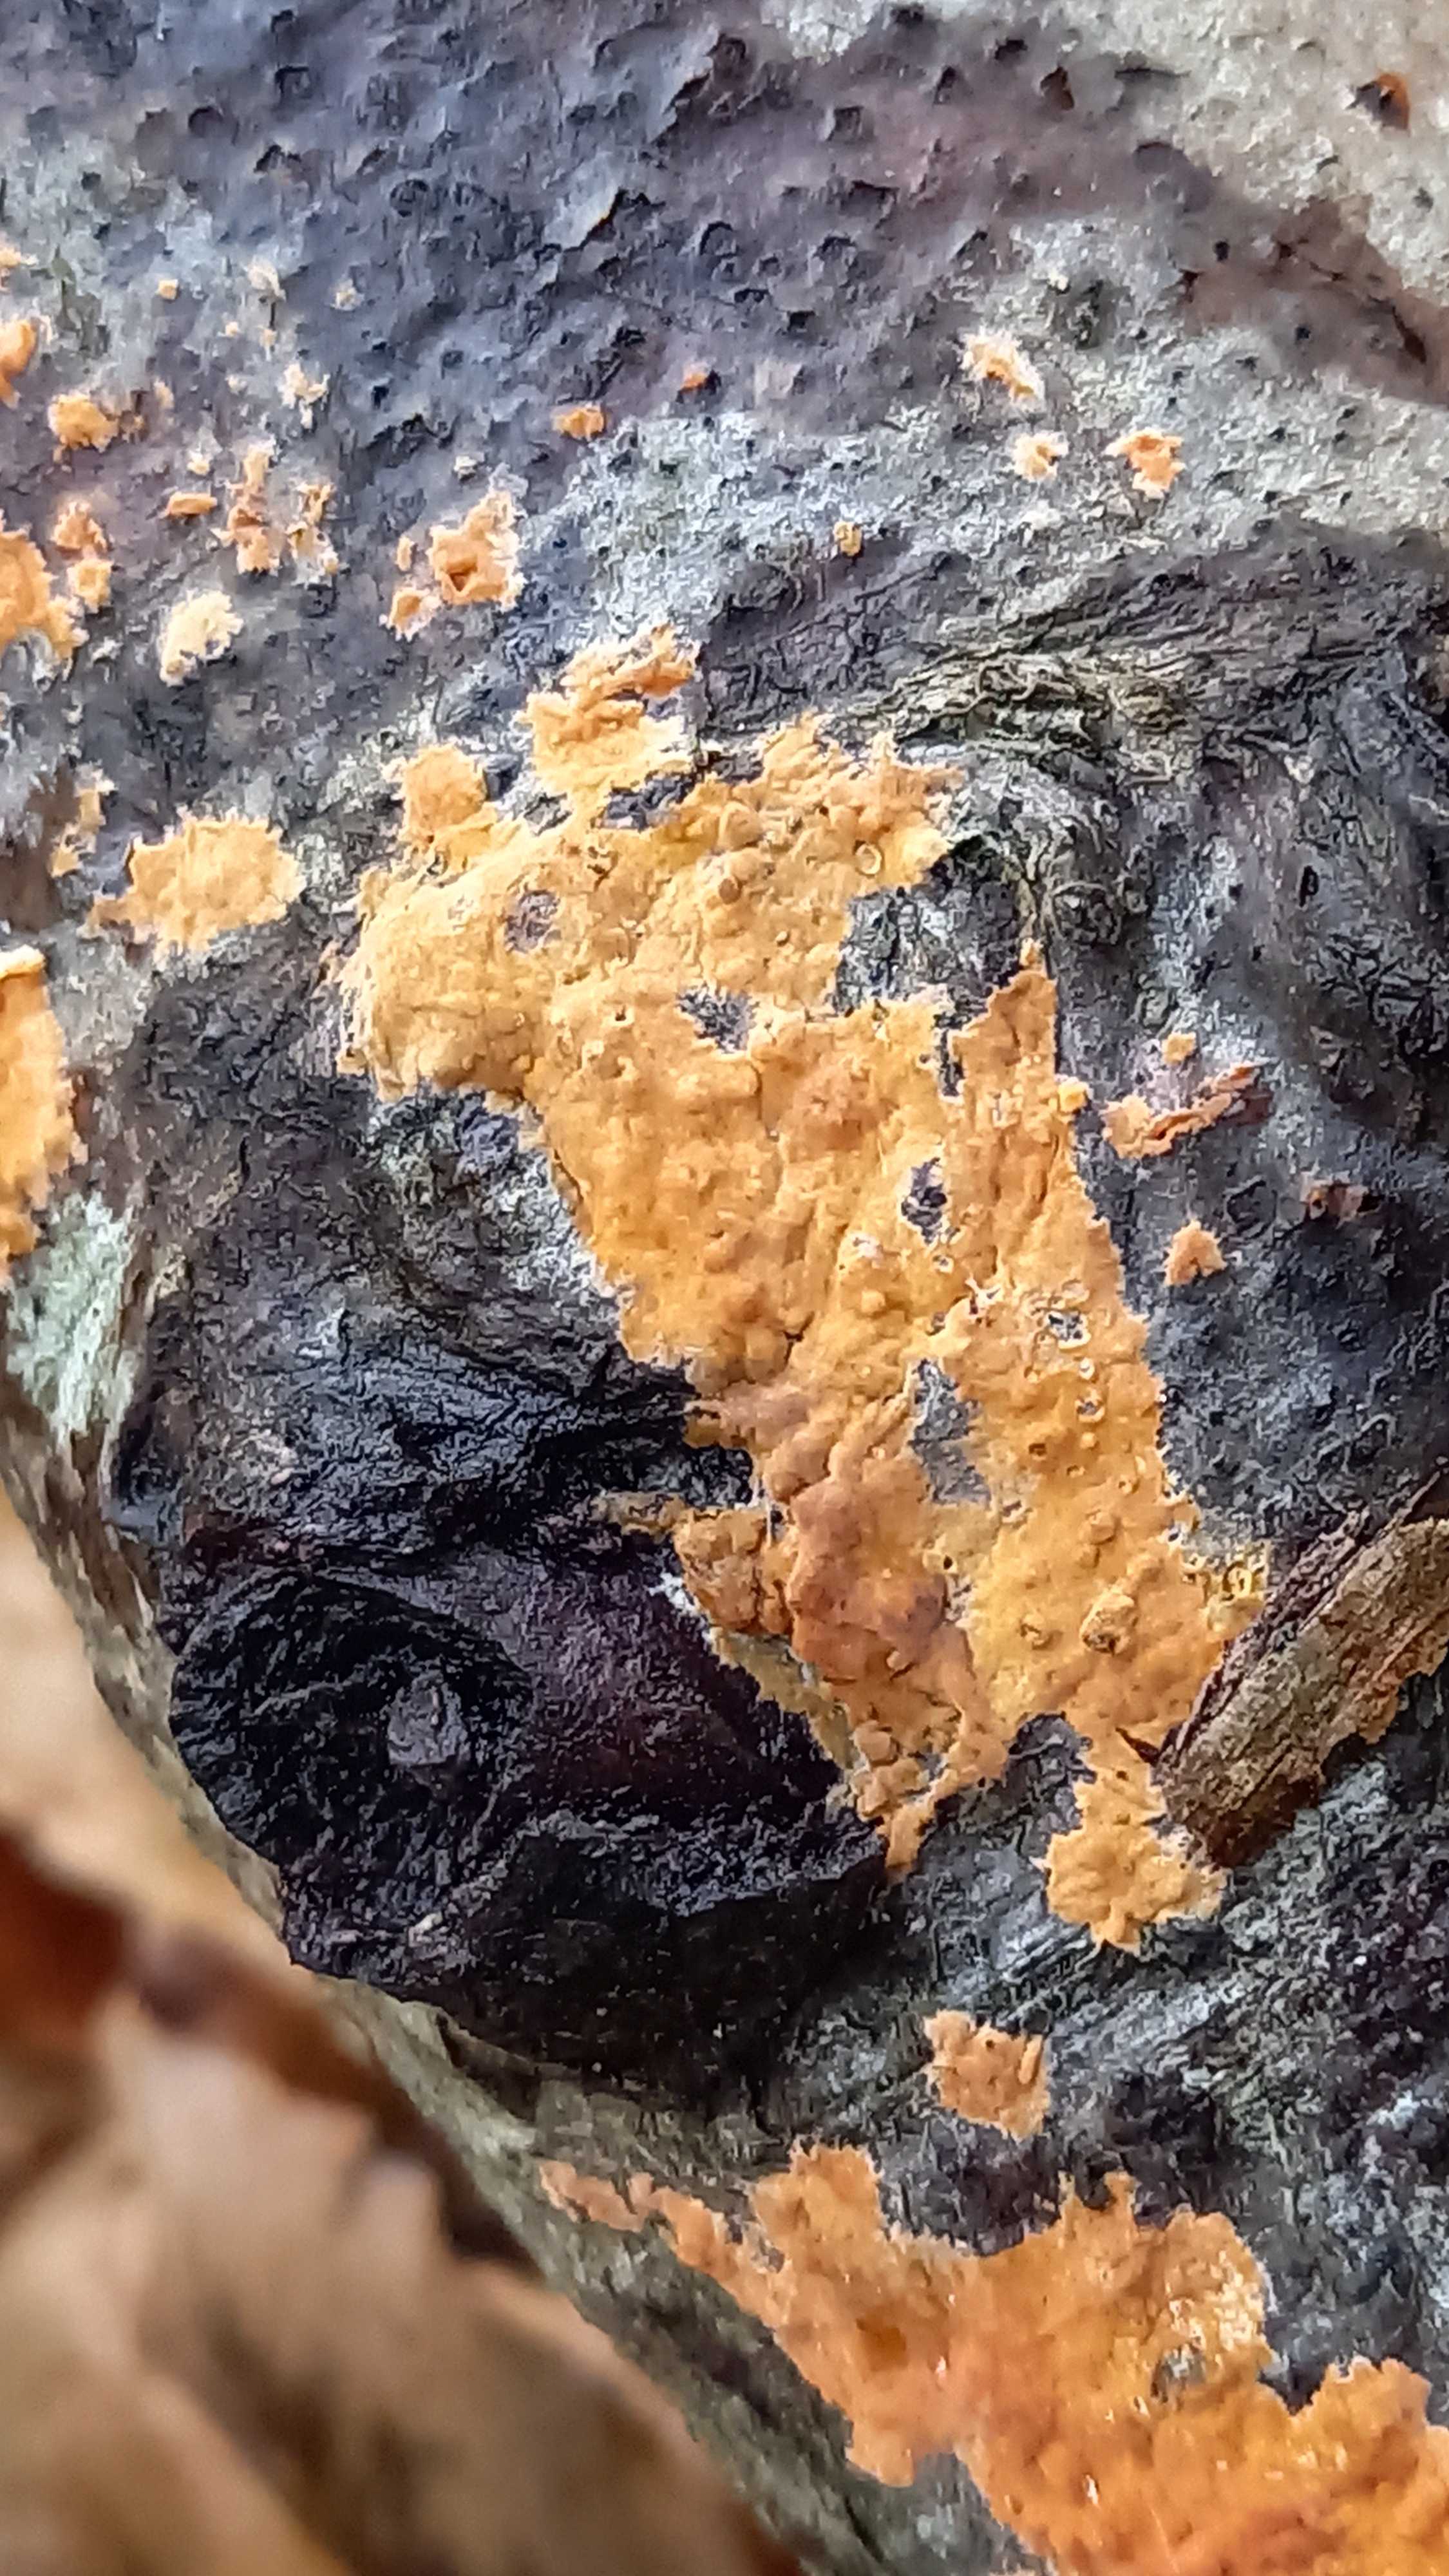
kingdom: Fungi
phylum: Basidiomycota
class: Agaricomycetes
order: Russulales
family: Peniophoraceae
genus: Peniophora
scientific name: Peniophora incarnata
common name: laksefarvet voksskind
